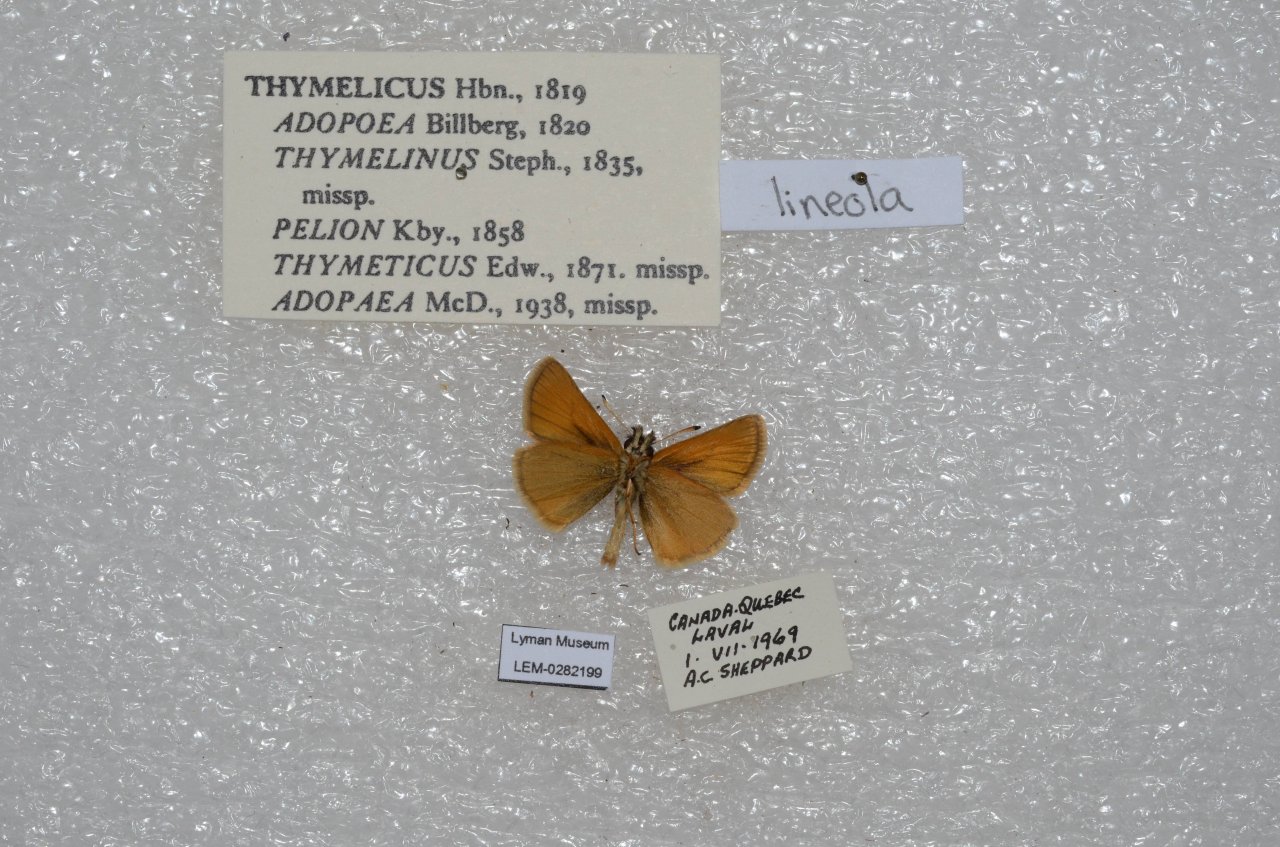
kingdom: Animalia
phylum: Arthropoda
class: Insecta
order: Lepidoptera
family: Hesperiidae
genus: Thymelicus
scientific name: Thymelicus lineola
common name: European Skipper
